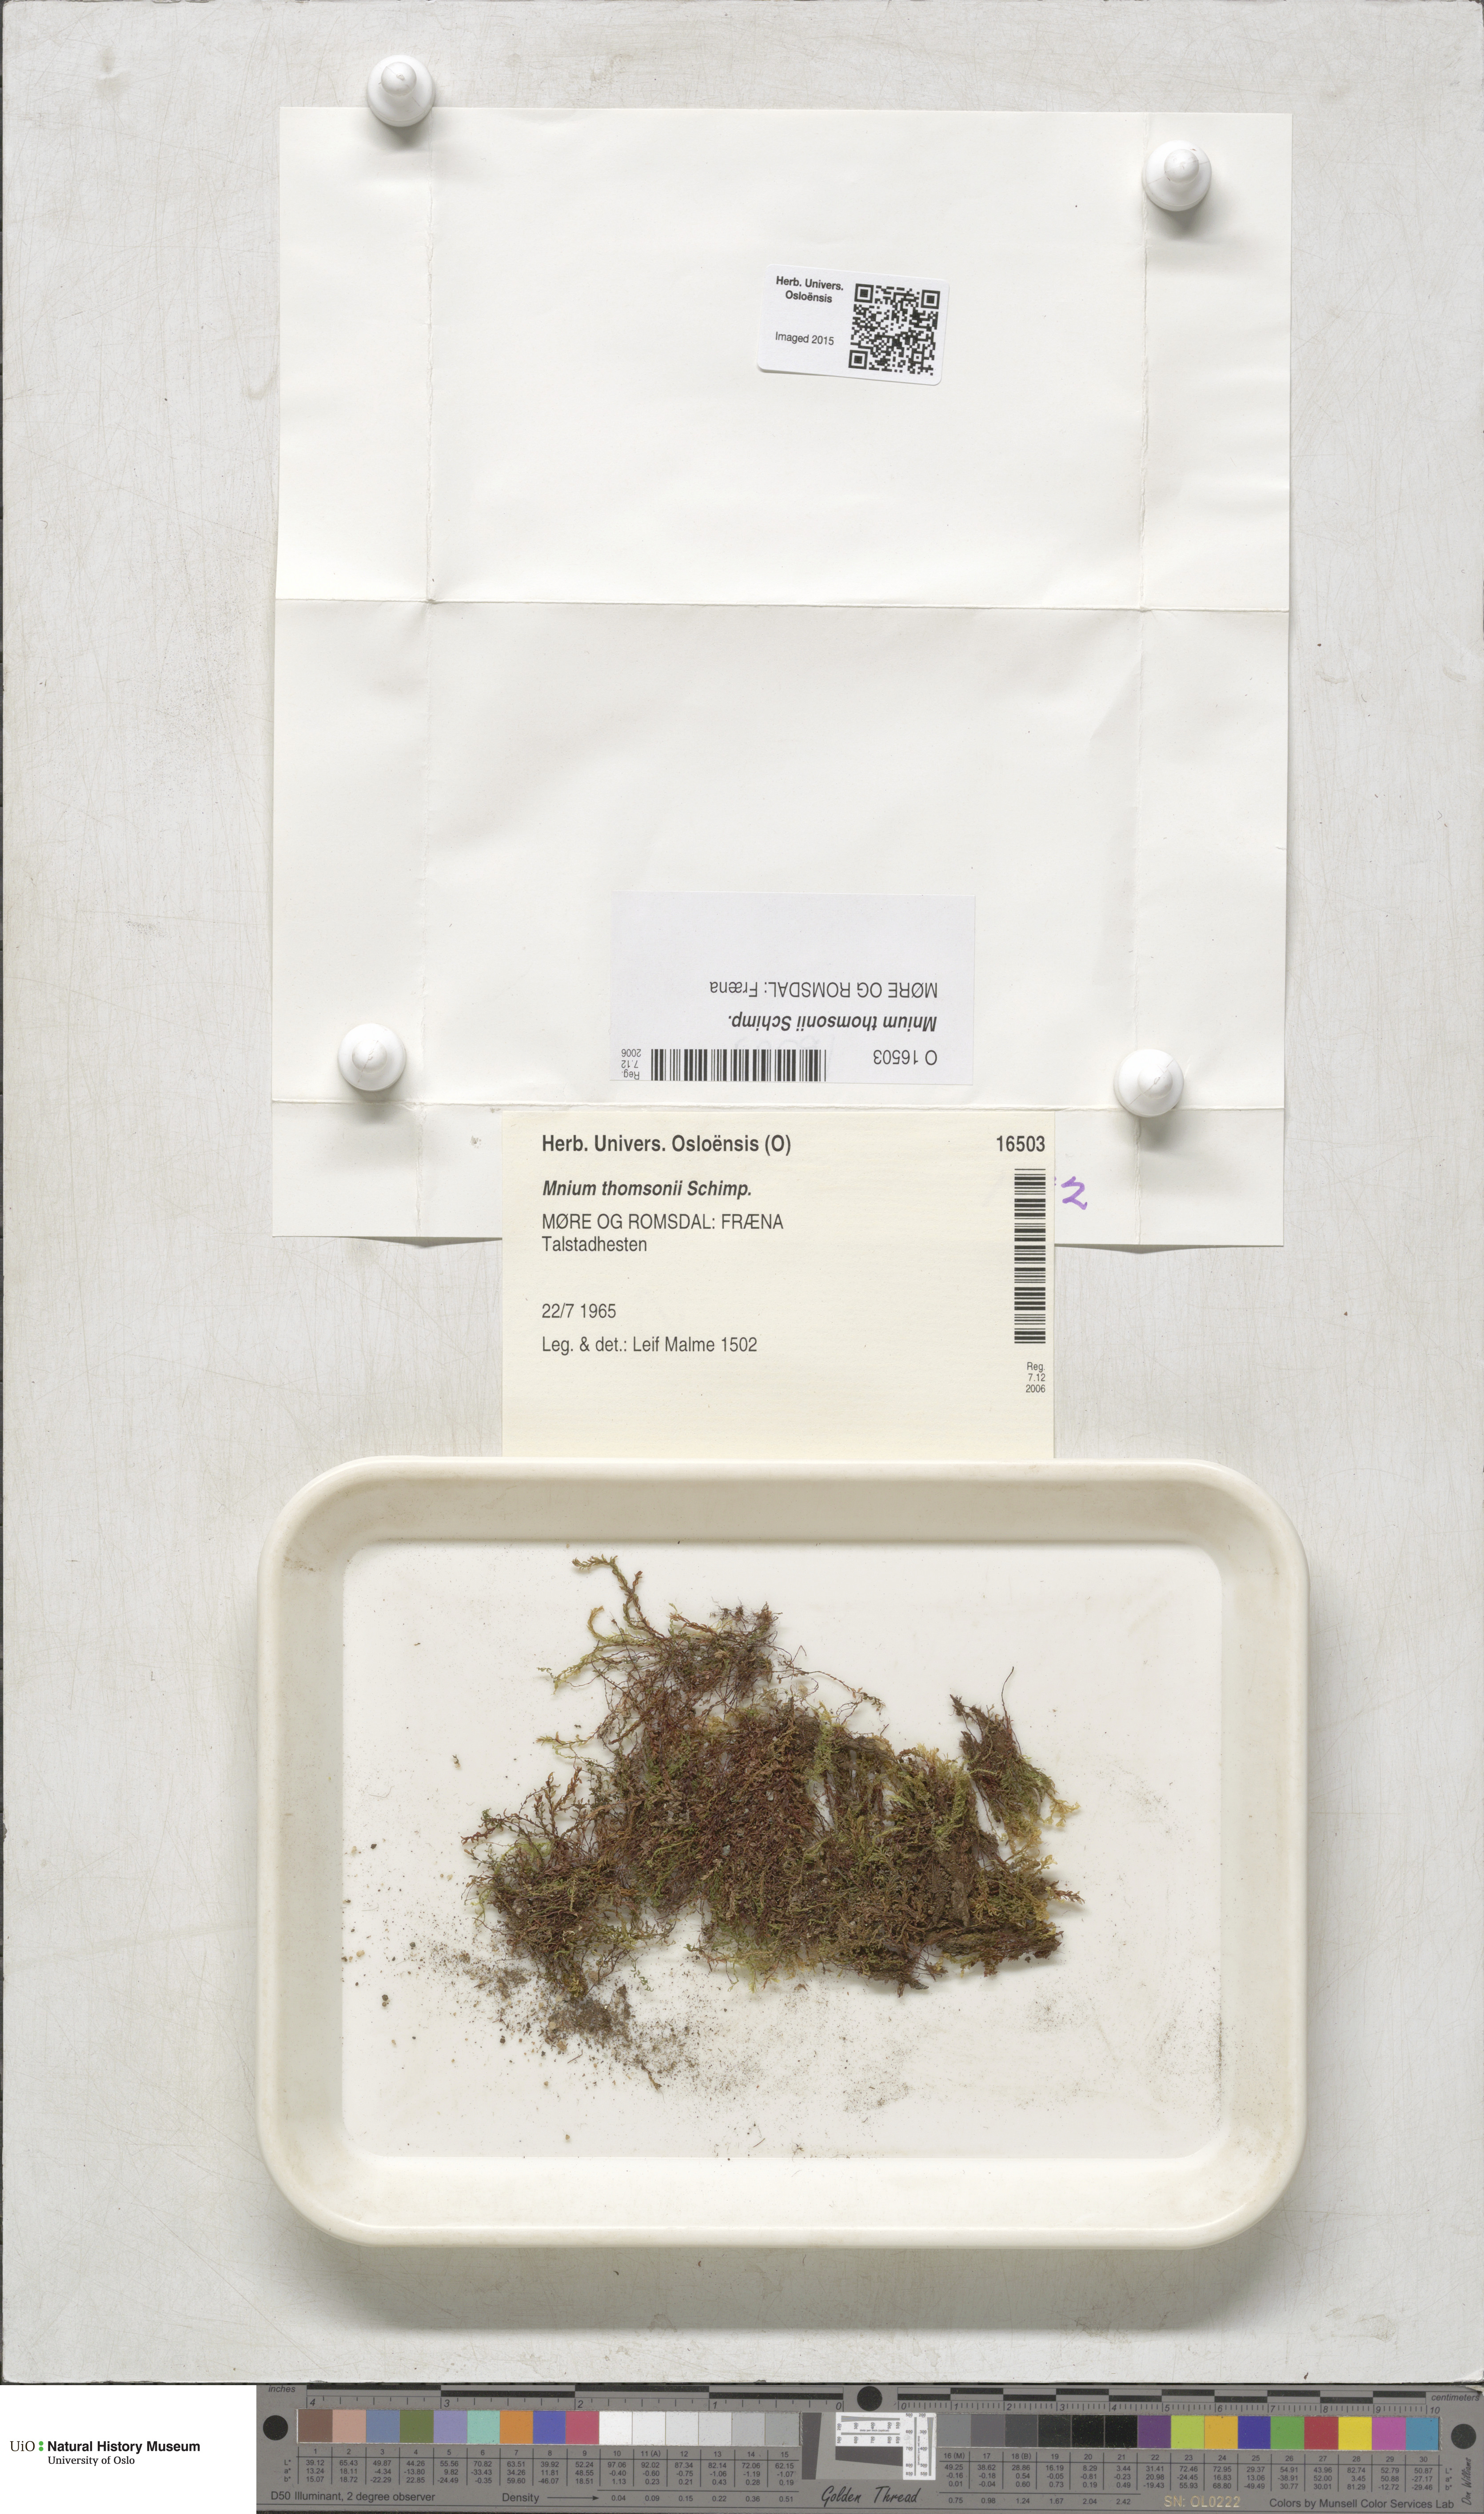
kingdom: Plantae
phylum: Bryophyta
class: Bryopsida
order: Bryales
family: Mniaceae
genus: Mnium
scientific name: Mnium thomsonii
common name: Thomson's leafy moss
